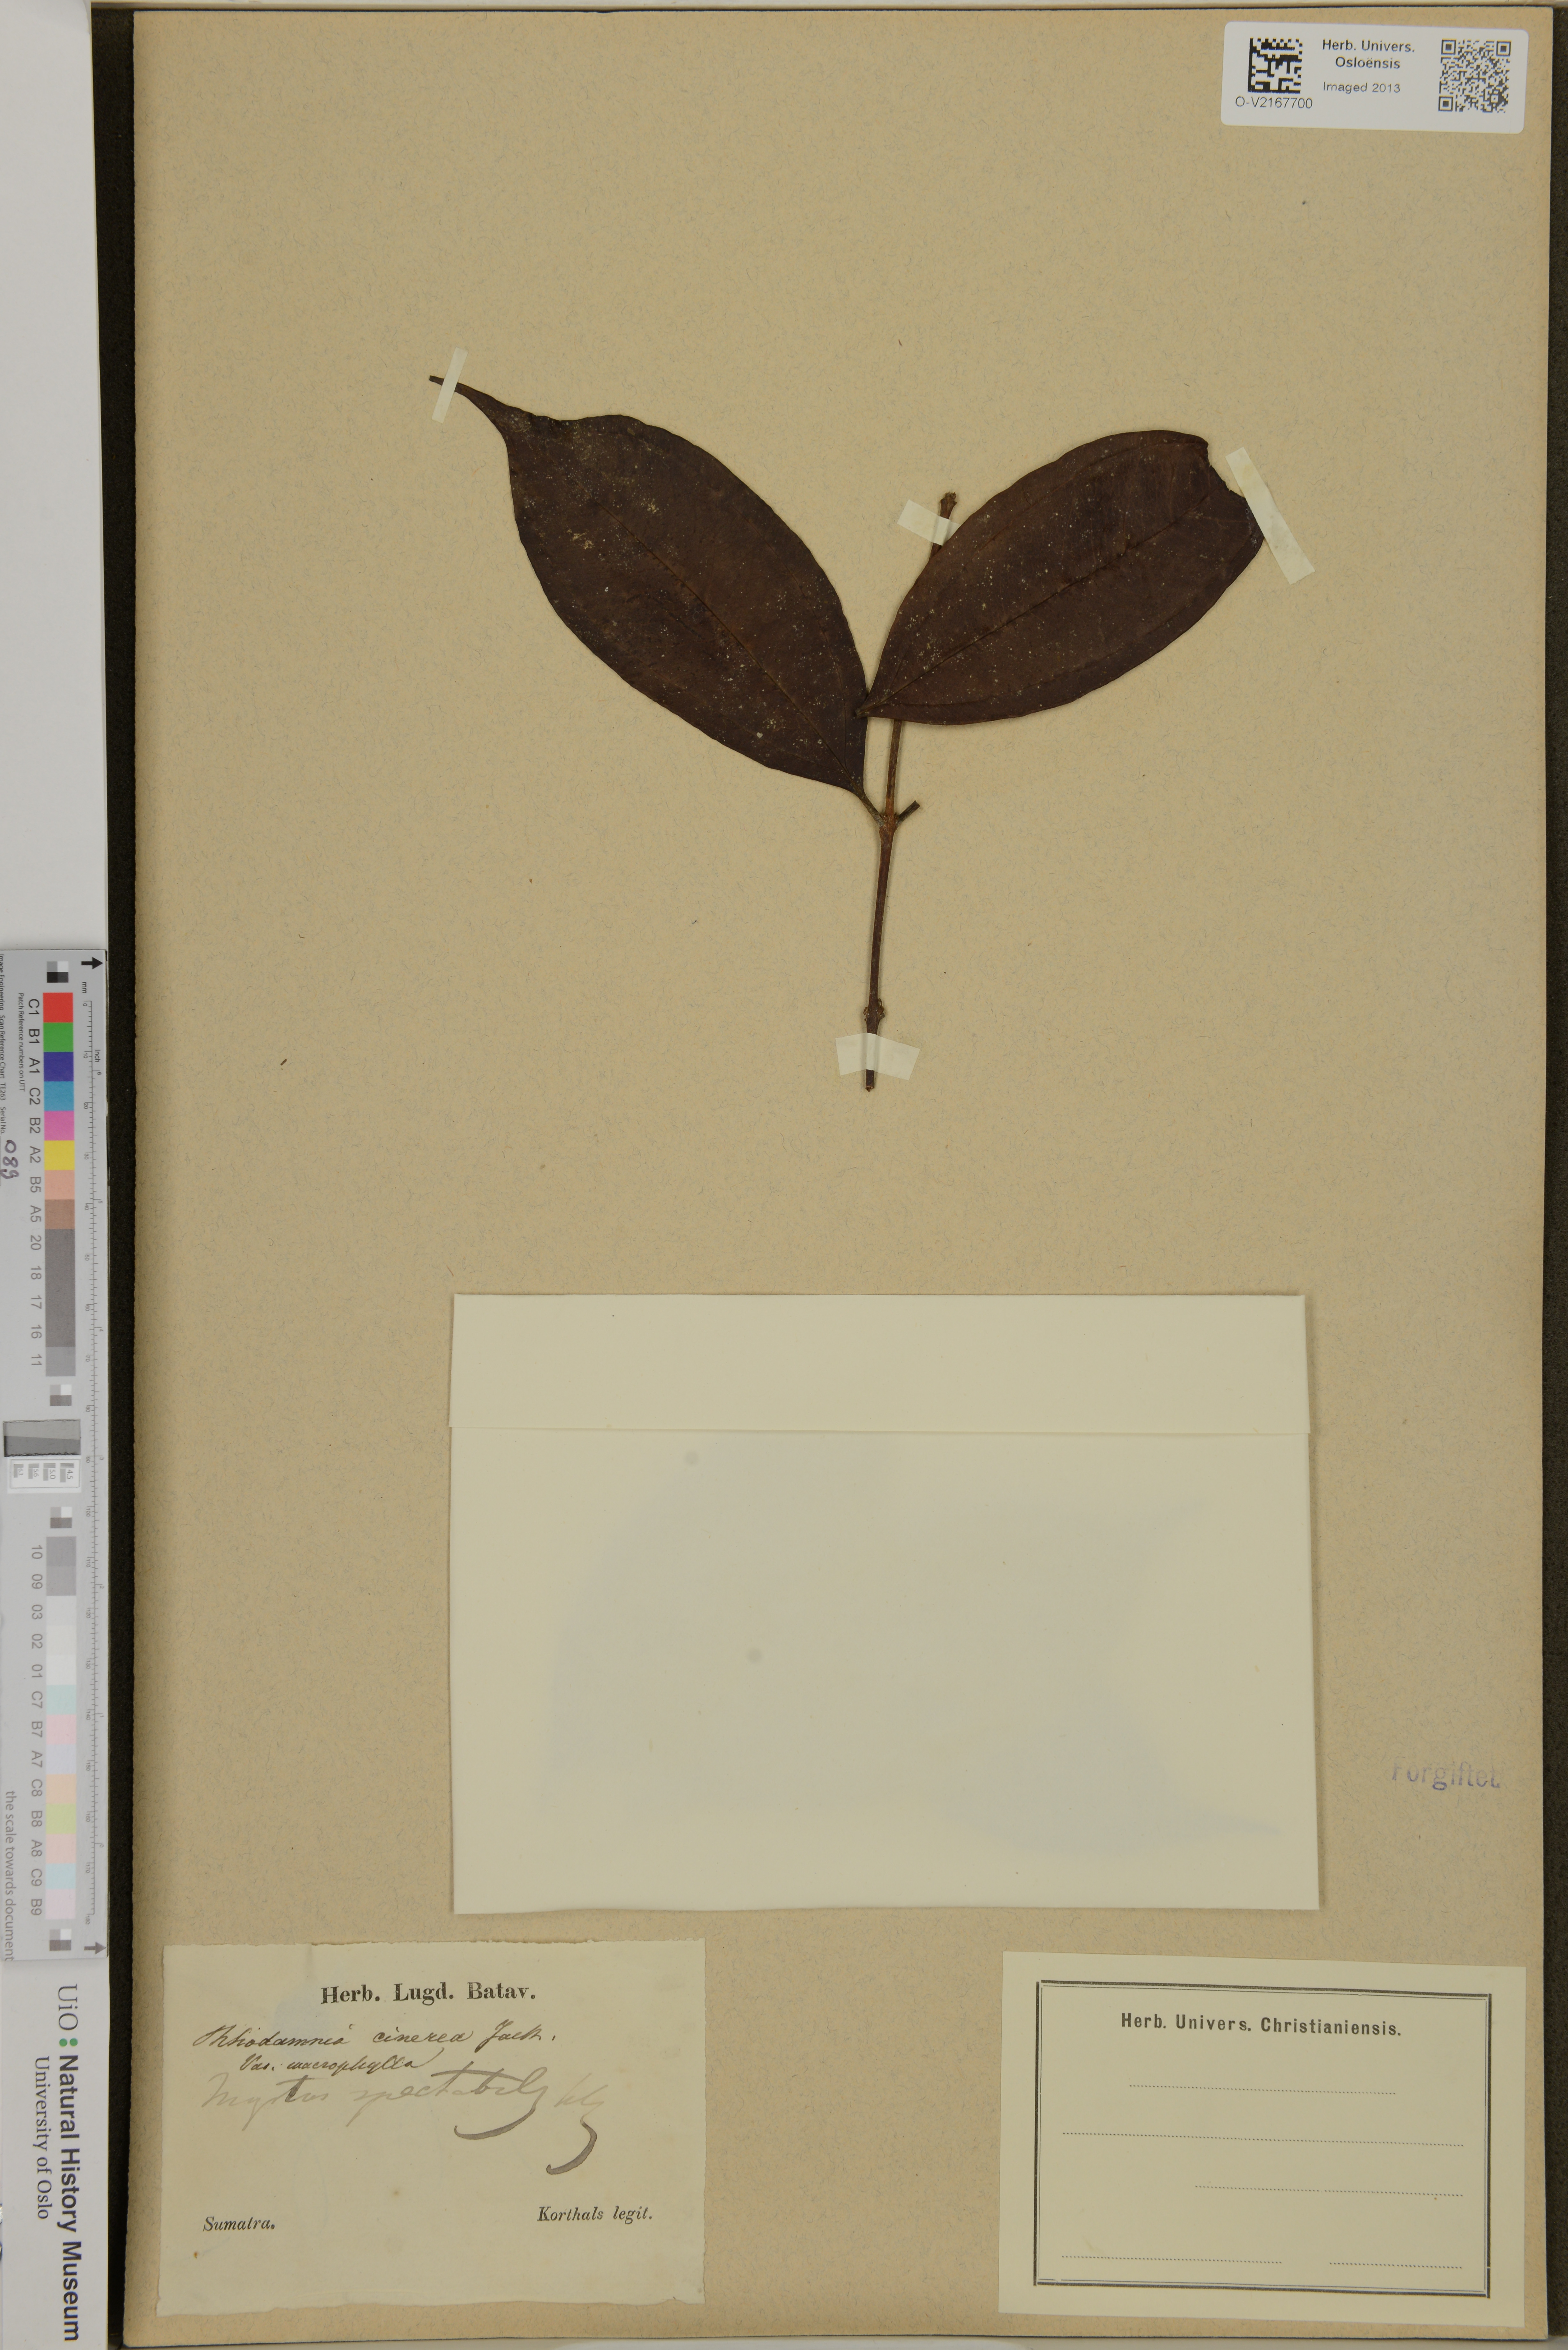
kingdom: Plantae
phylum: Tracheophyta
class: Magnoliopsida
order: Myrtales
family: Myrtaceae
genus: Rhodamnia
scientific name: Rhodamnia cinerea
